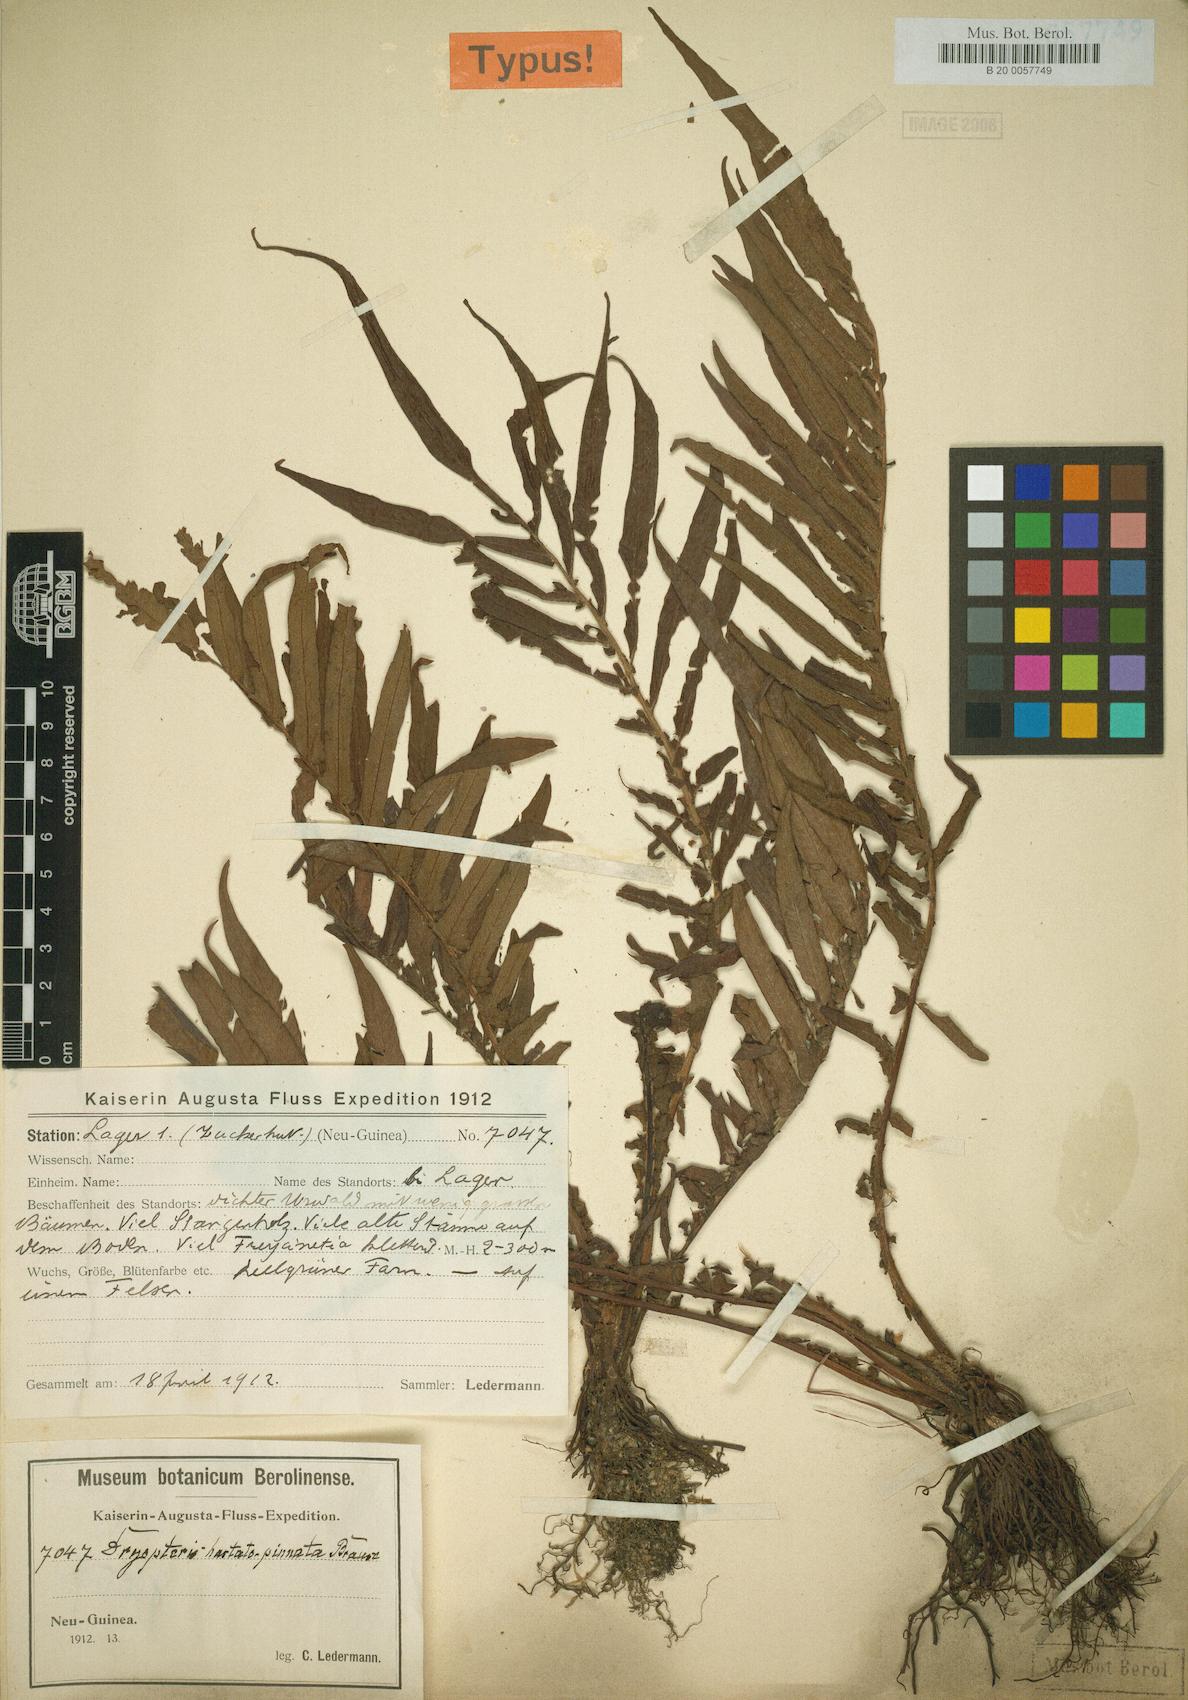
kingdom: Plantae
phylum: Tracheophyta
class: Polypodiopsida
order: Polypodiales
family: Thelypteridaceae
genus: Sphaerostephanos
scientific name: Sphaerostephanos hastatopinnatus
